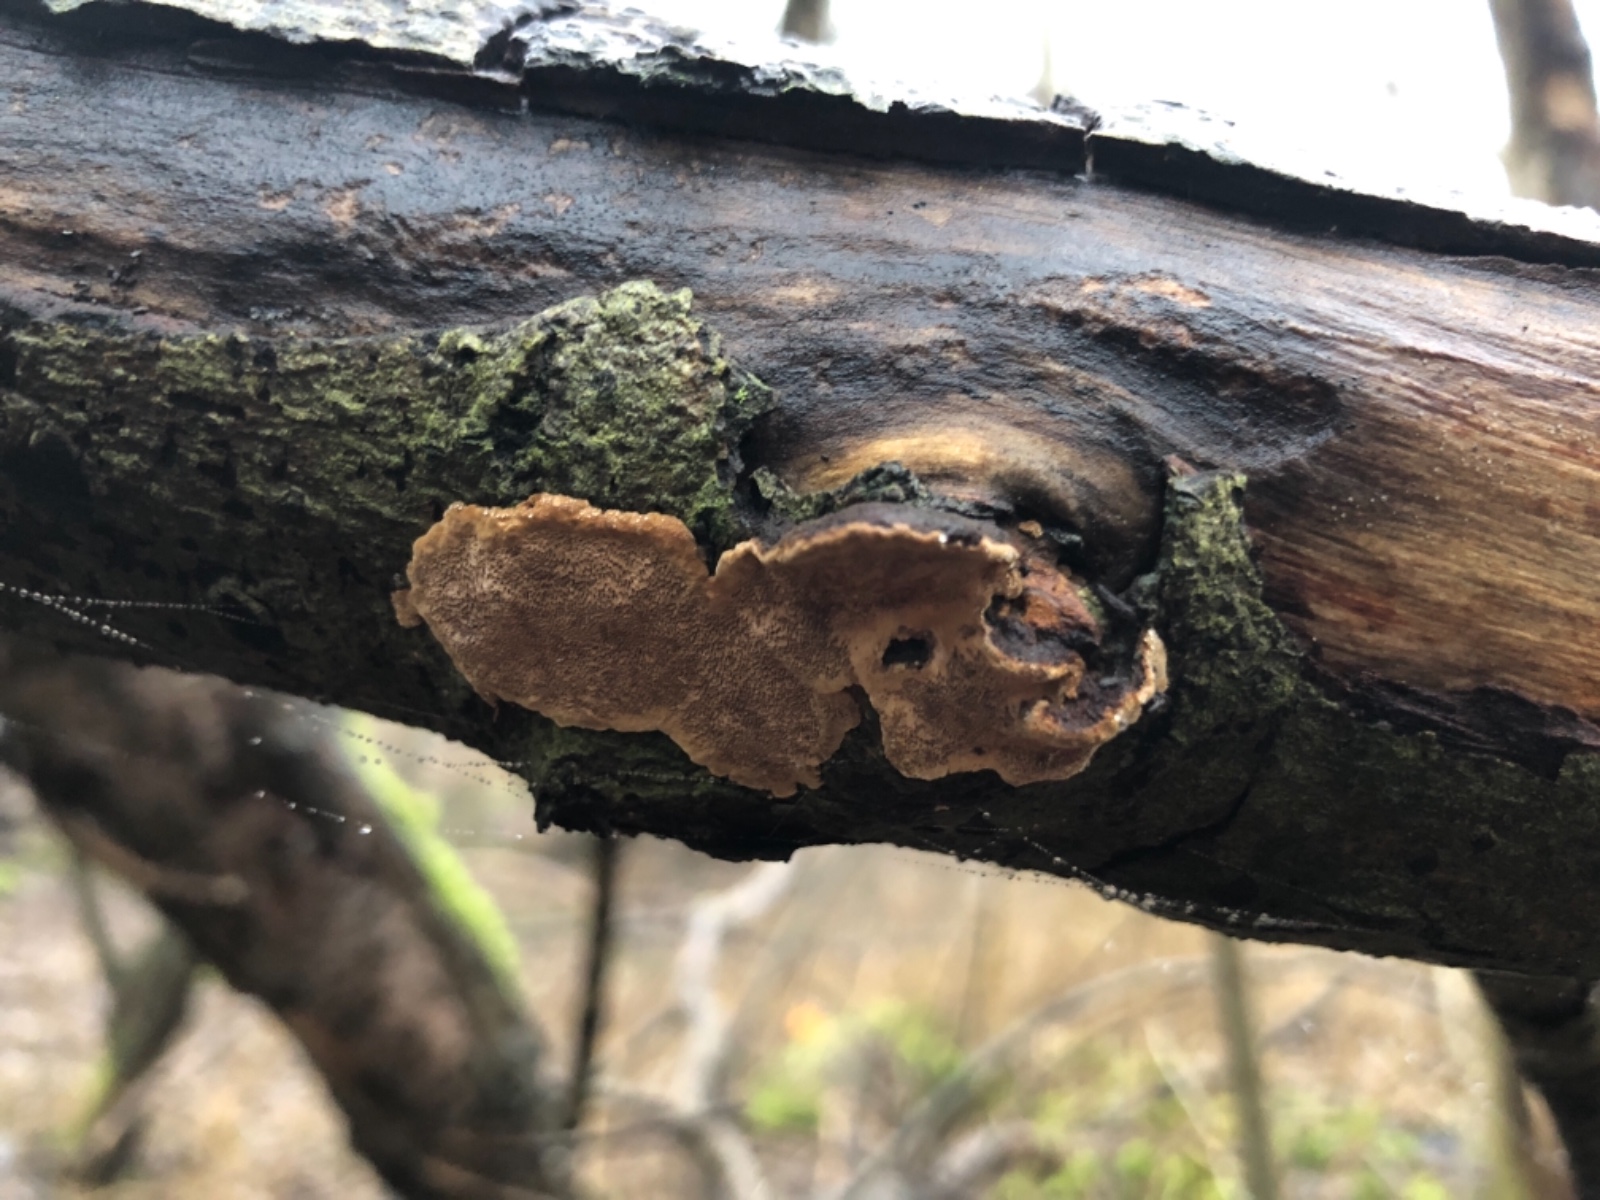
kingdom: Fungi
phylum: Basidiomycota
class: Agaricomycetes
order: Hymenochaetales
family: Hymenochaetaceae
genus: Phellinopsis
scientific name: Phellinopsis conchata
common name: pile-ildporesvamp
